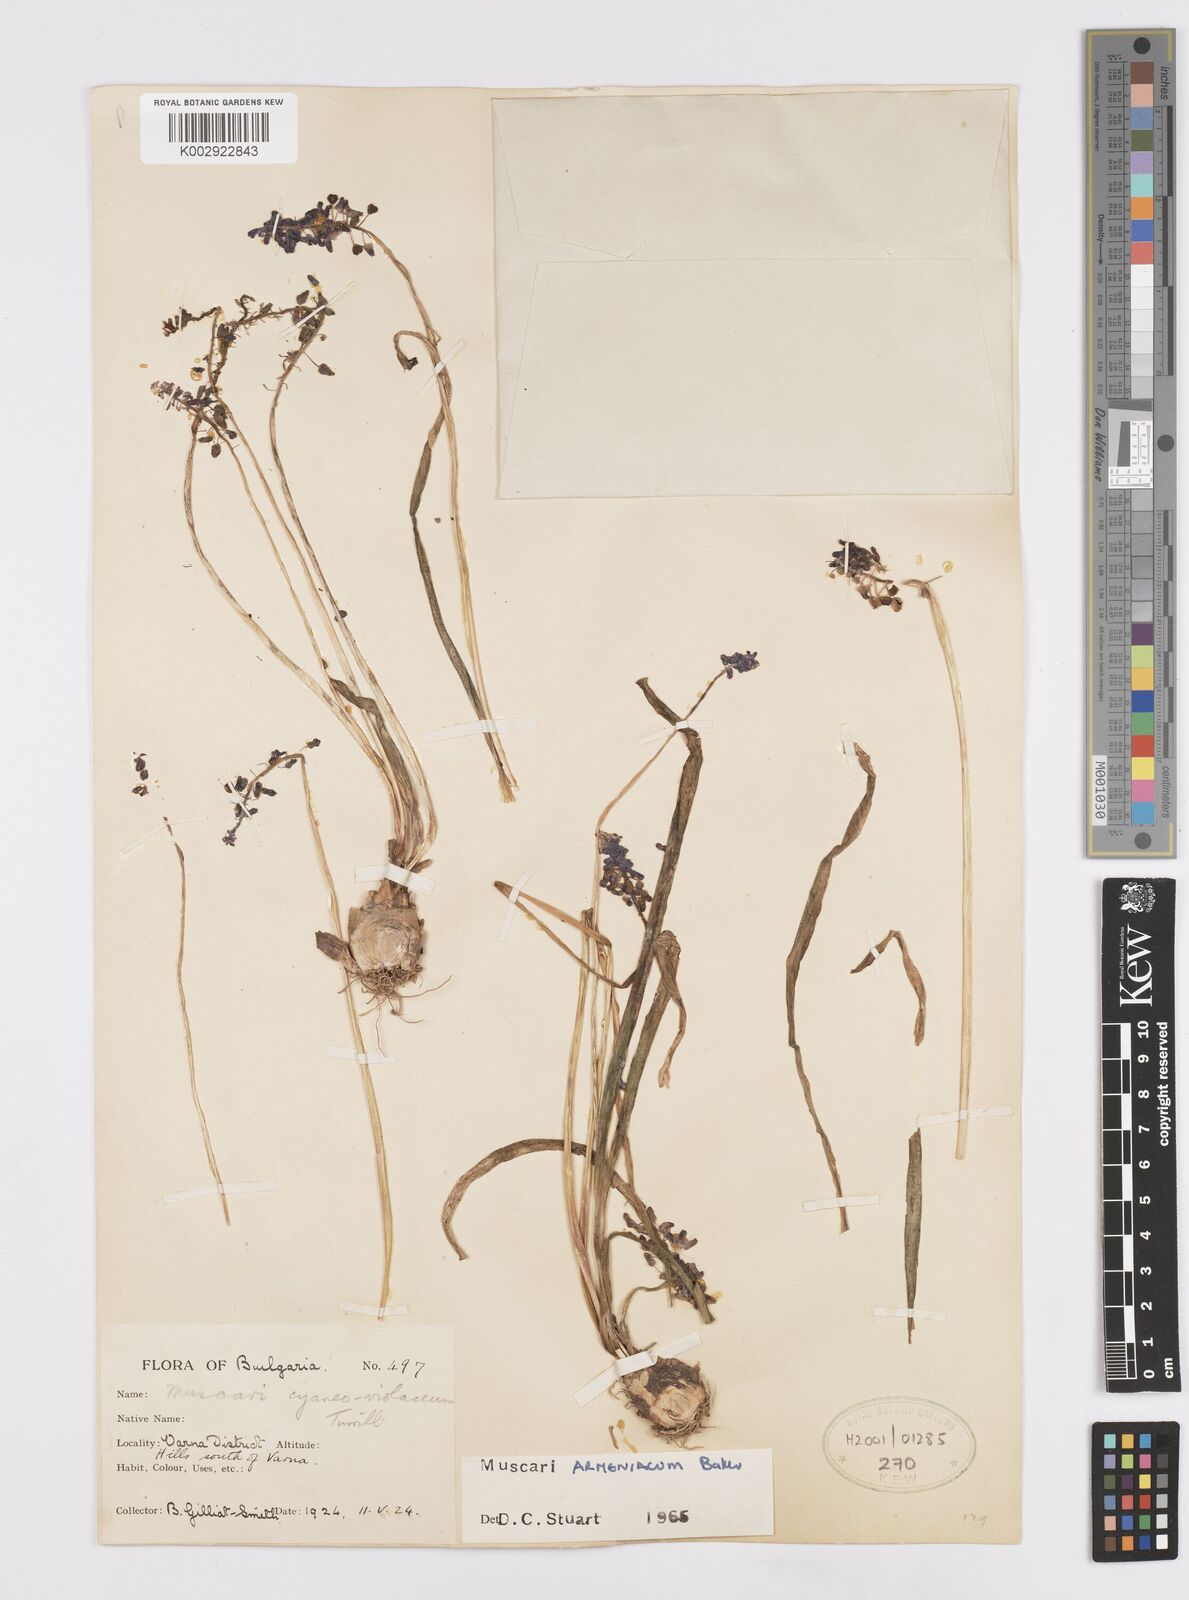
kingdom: Plantae
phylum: Tracheophyta
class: Liliopsida
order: Asparagales
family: Asparagaceae
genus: Muscari
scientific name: Muscari
